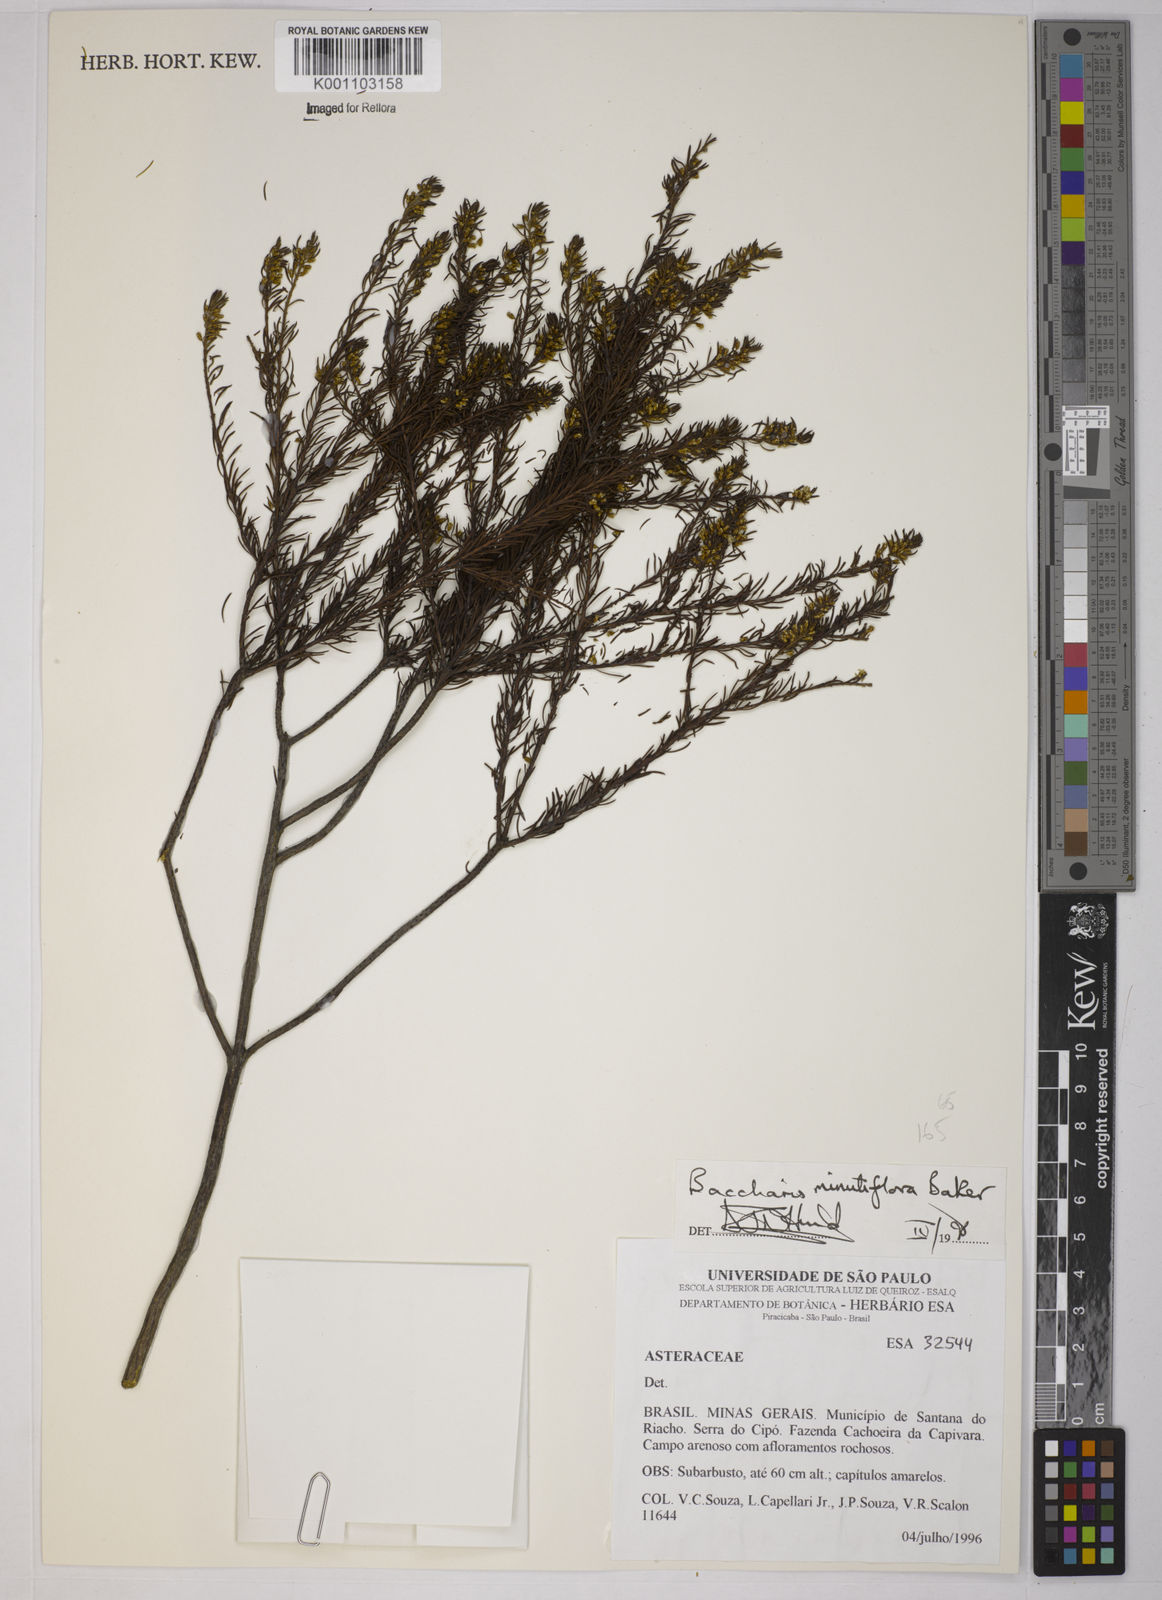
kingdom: Plantae
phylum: Tracheophyta
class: Magnoliopsida
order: Asterales
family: Asteraceae
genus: Baccharis
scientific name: Baccharis minutiflora
